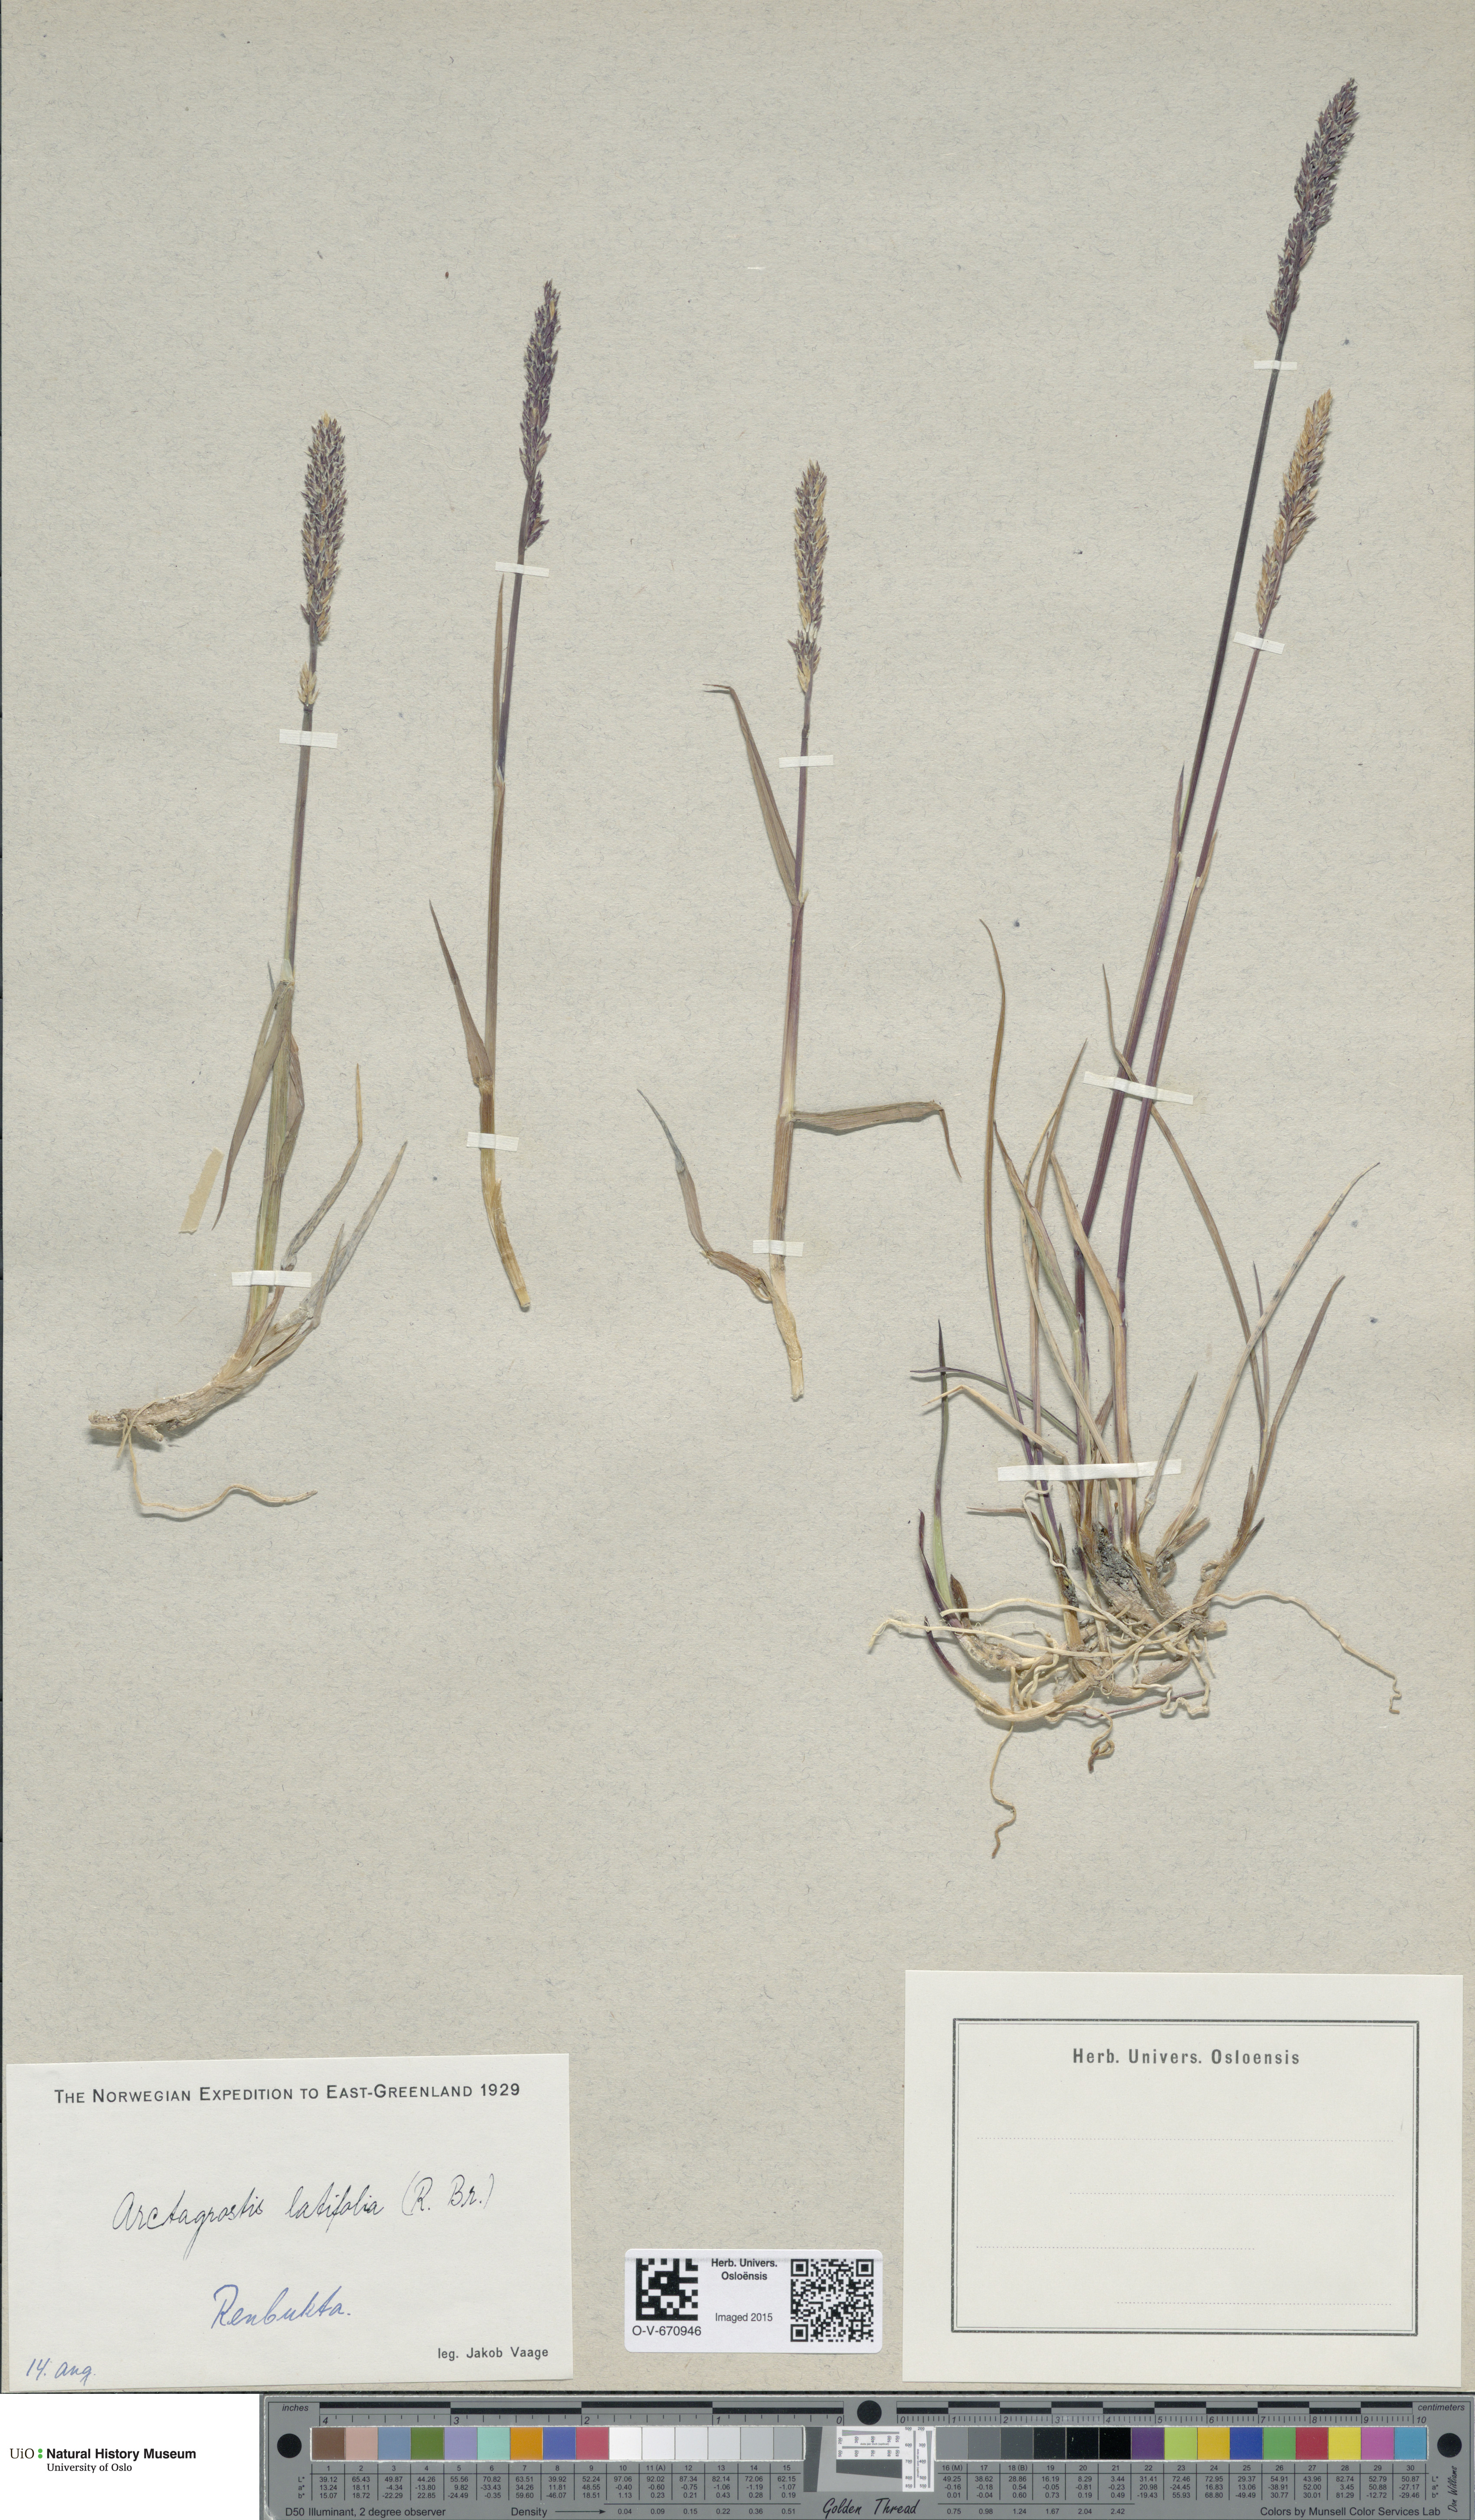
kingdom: Plantae
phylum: Tracheophyta
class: Liliopsida
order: Poales
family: Poaceae
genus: Arctagrostis
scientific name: Arctagrostis latifolia
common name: Arctic grass
